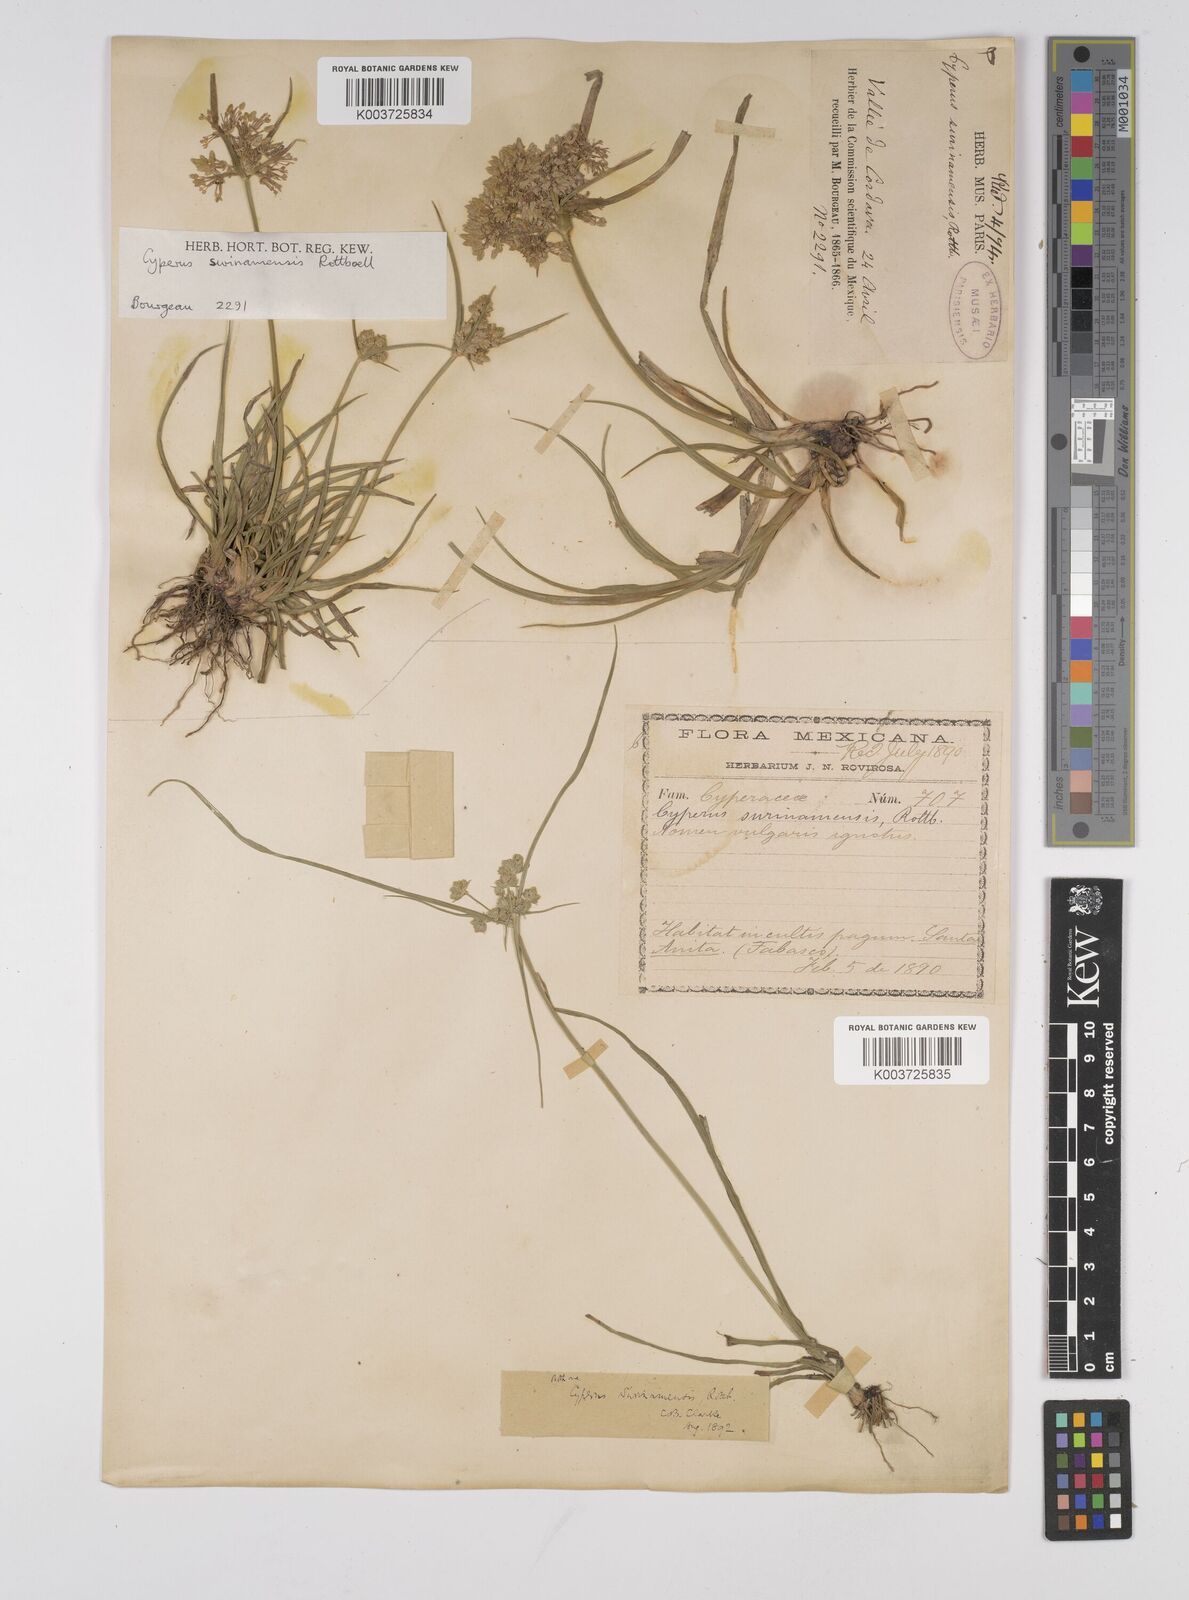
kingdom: Plantae
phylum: Tracheophyta
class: Liliopsida
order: Poales
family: Cyperaceae
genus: Cyperus
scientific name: Cyperus surinamensis
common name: Tropical flat sedge
